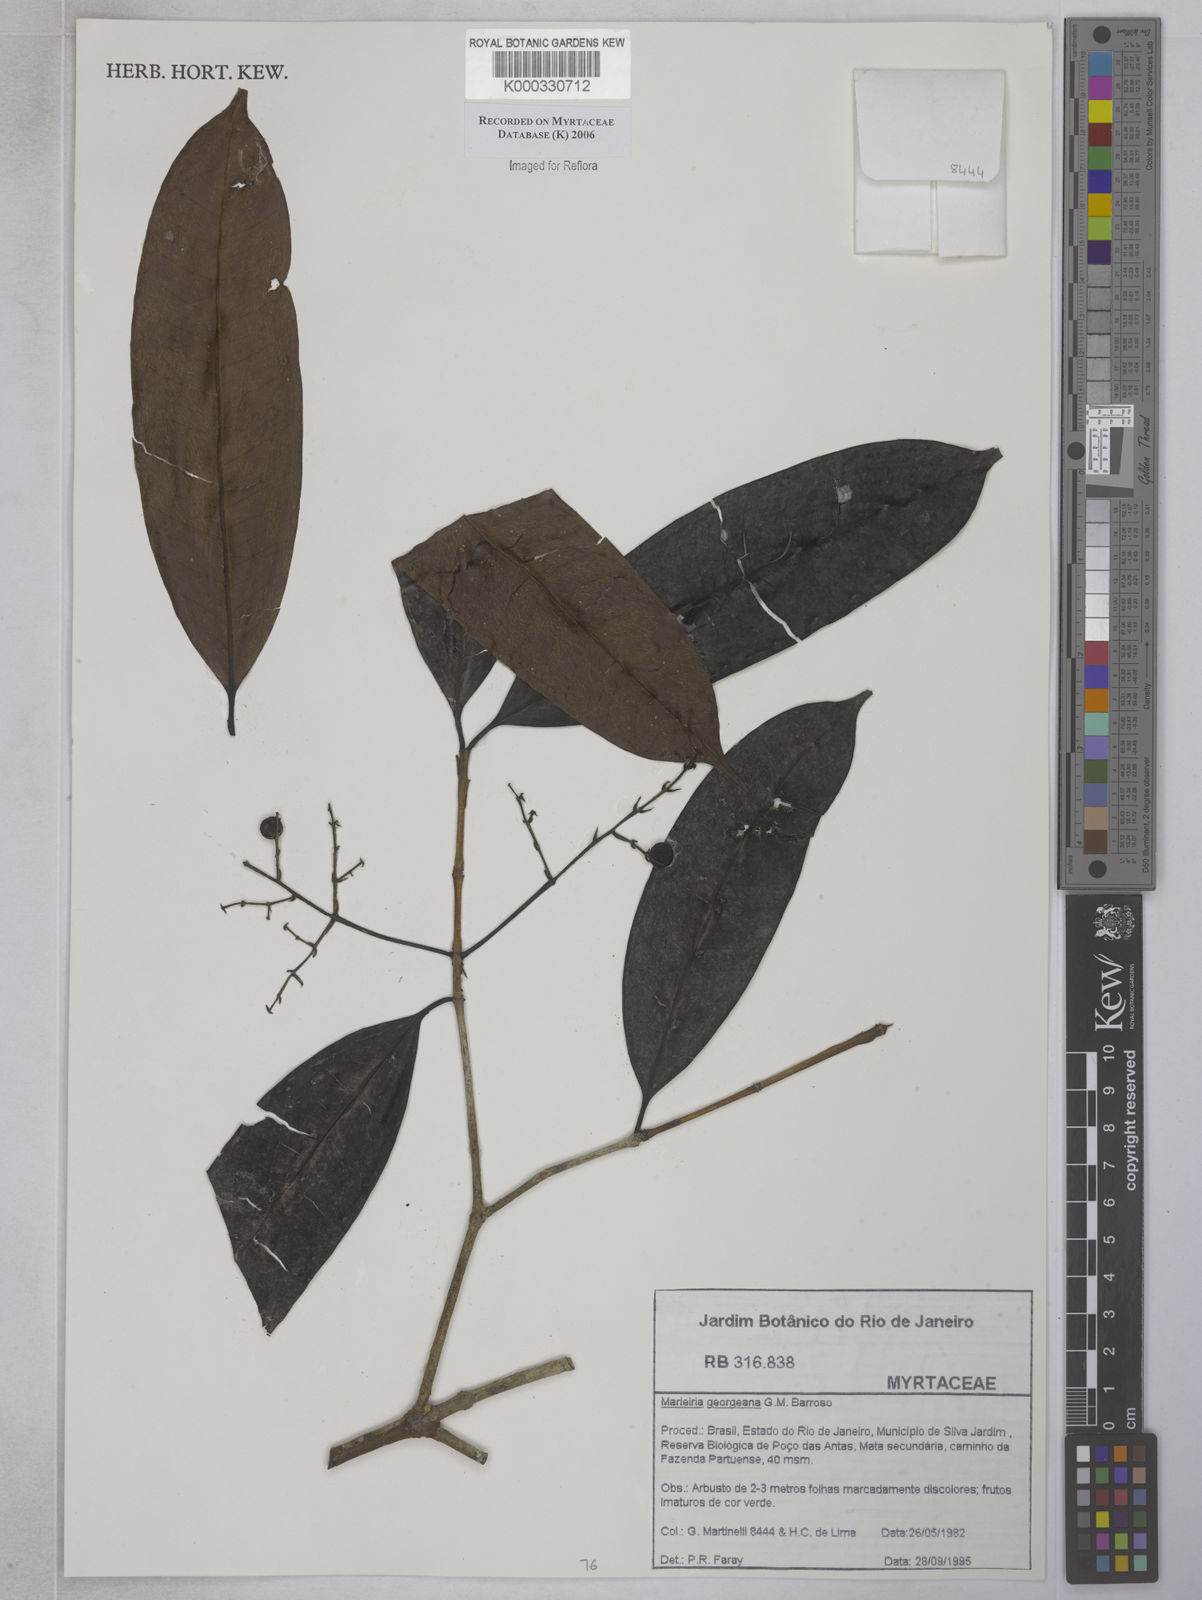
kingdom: Plantae
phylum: Tracheophyta
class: Magnoliopsida
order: Myrtales
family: Myrtaceae
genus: Marlierea
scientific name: Marlierea
